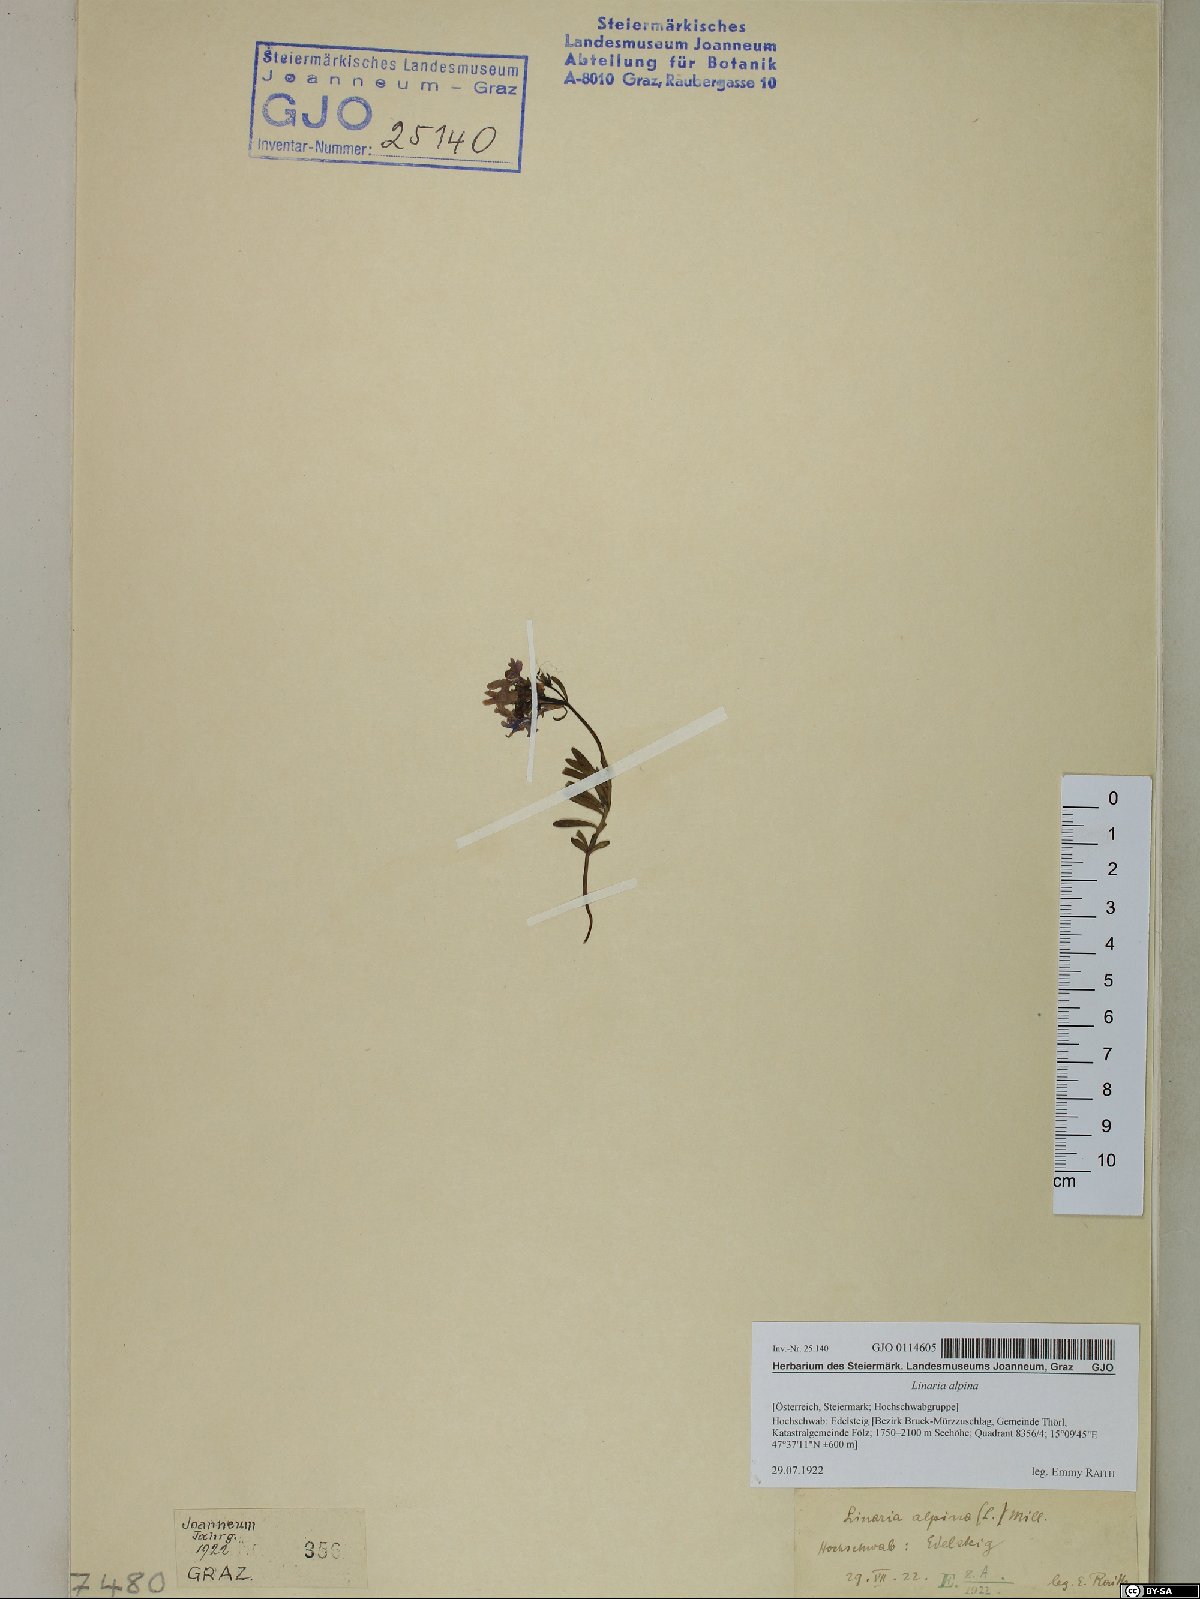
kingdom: Plantae
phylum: Tracheophyta
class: Magnoliopsida
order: Lamiales
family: Plantaginaceae
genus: Linaria
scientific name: Linaria alpina
